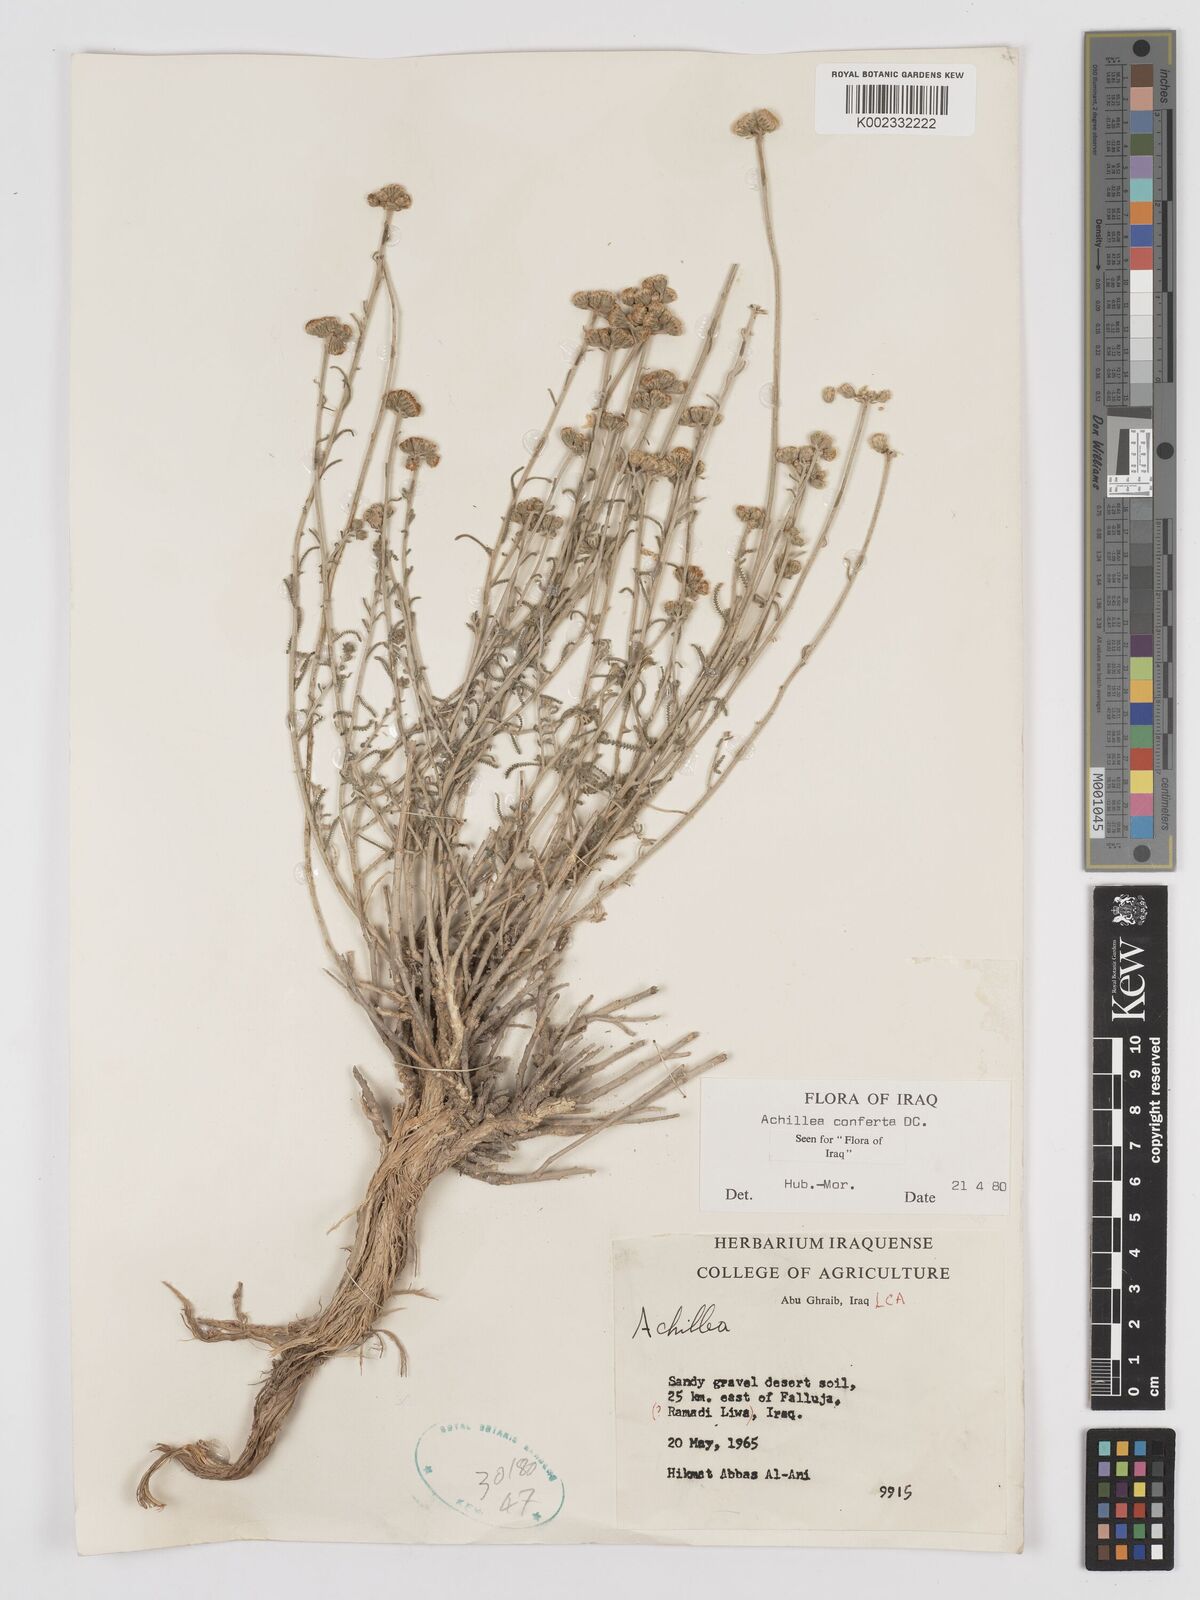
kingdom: Plantae
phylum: Tracheophyta
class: Magnoliopsida
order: Asterales
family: Asteraceae
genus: Achillea
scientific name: Achillea conferta
